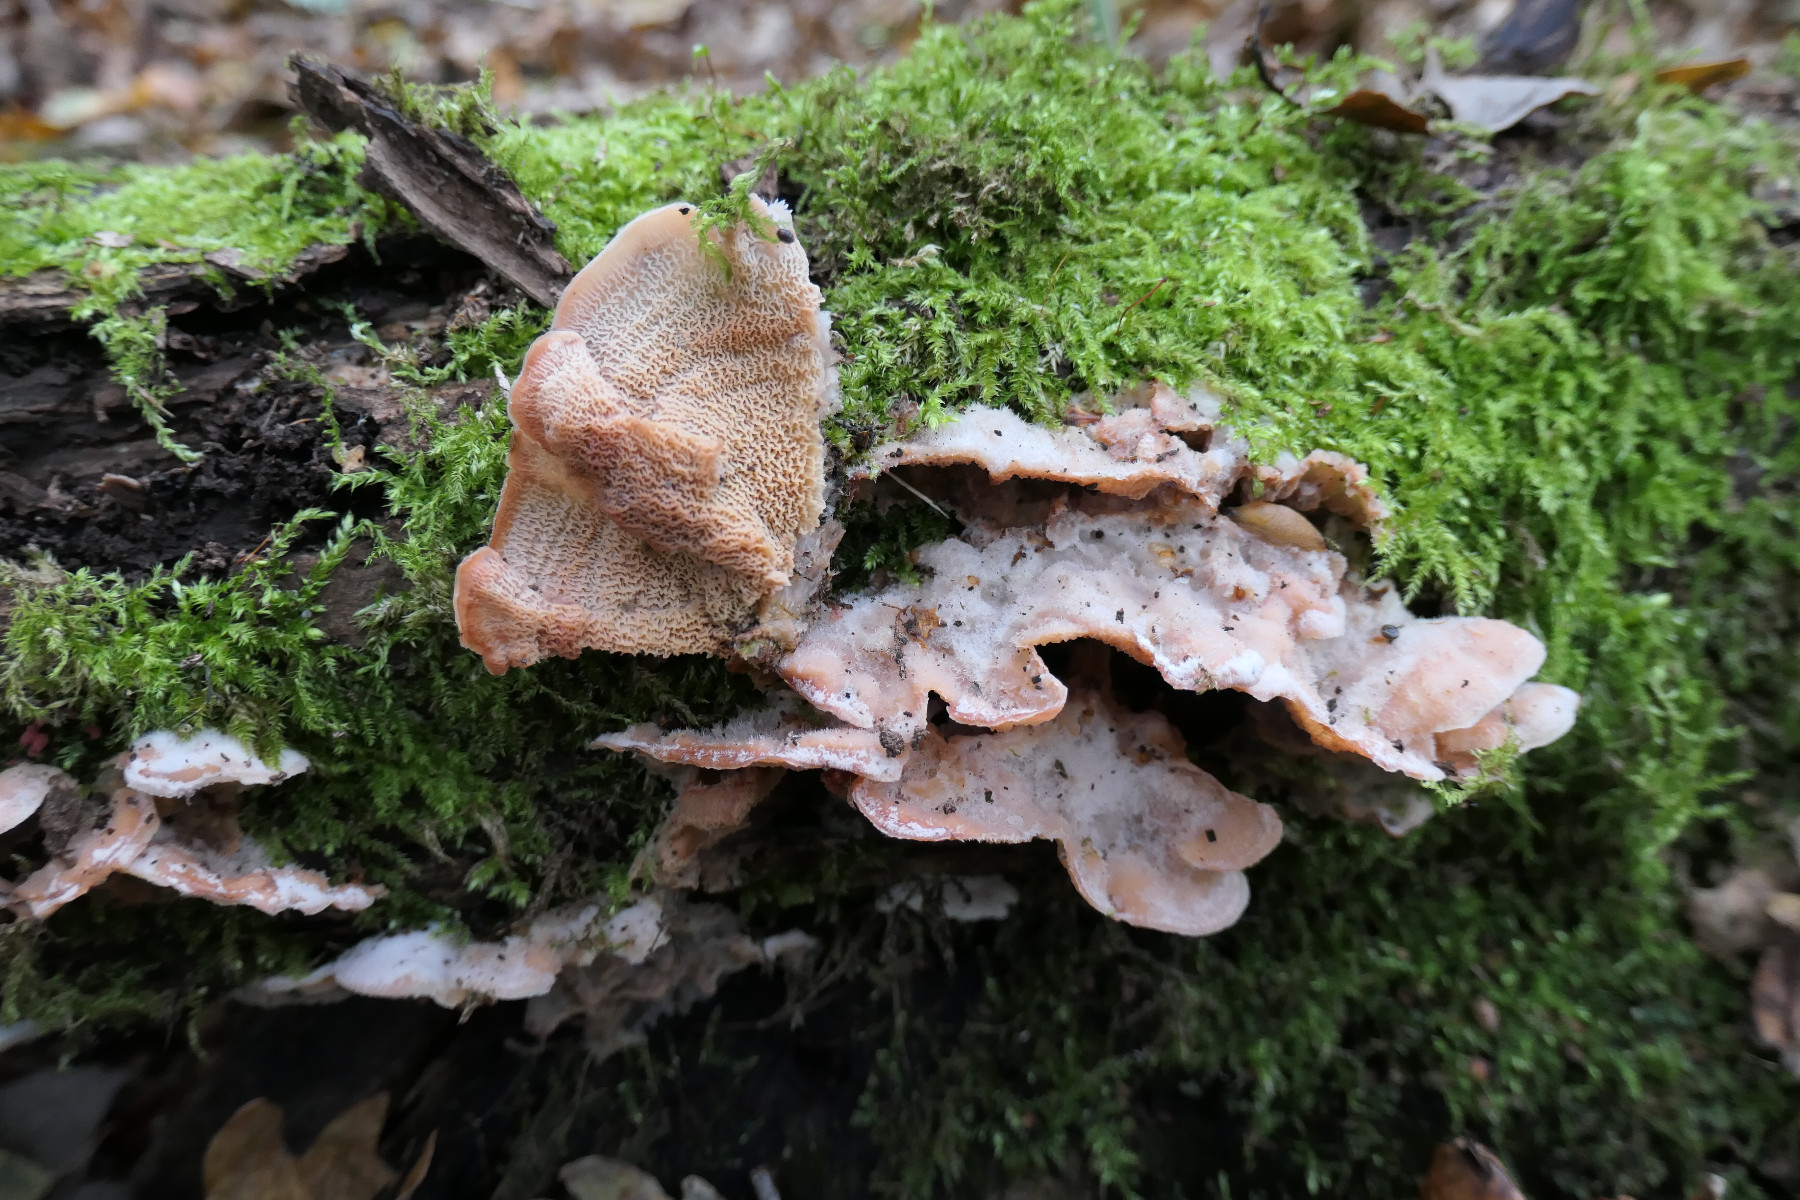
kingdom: Fungi
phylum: Basidiomycota
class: Agaricomycetes
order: Polyporales
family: Meruliaceae
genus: Phlebia
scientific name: Phlebia tremellosa
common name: bævrende åresvamp
